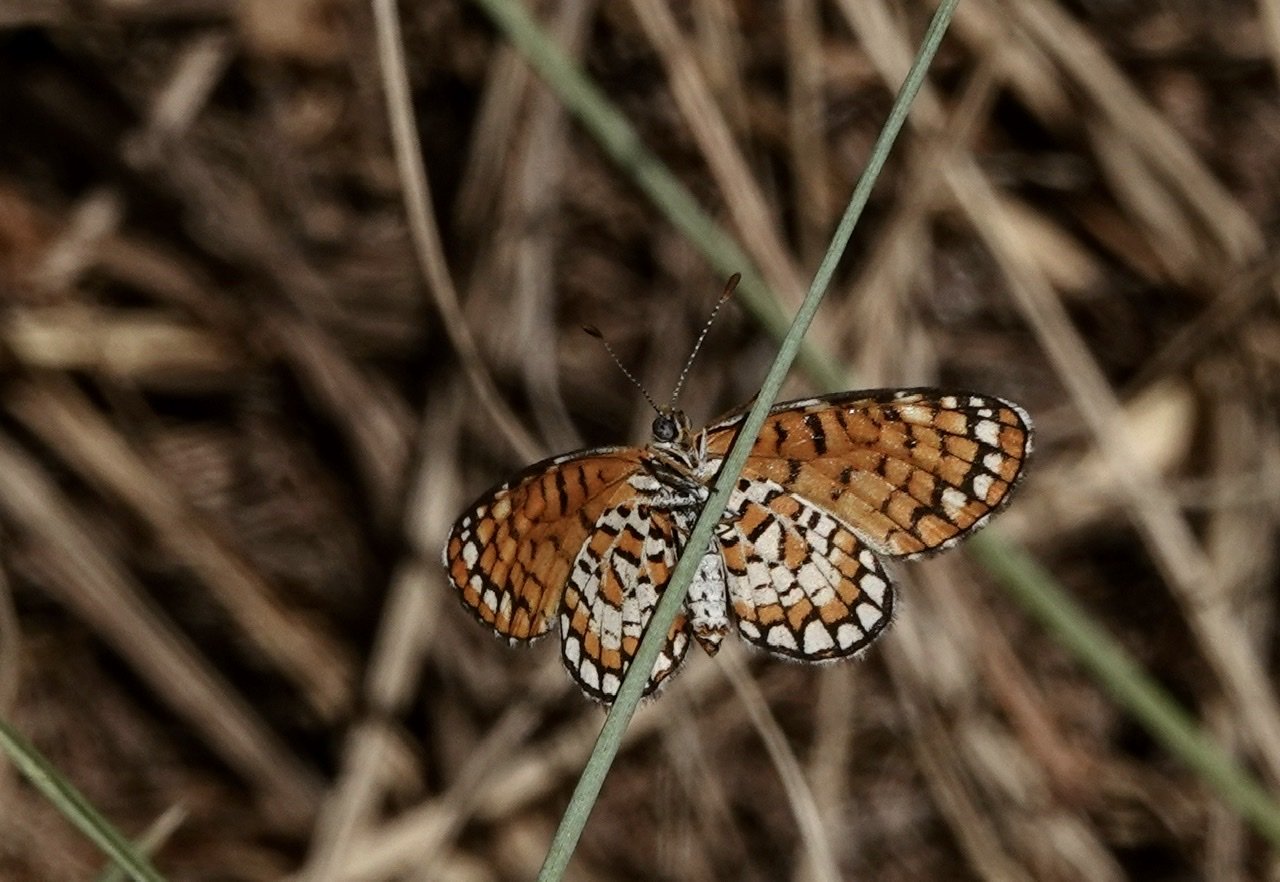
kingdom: Animalia
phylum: Arthropoda
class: Insecta
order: Lepidoptera
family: Nymphalidae
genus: Texola
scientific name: Texola elada
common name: Elada Checkerspot
